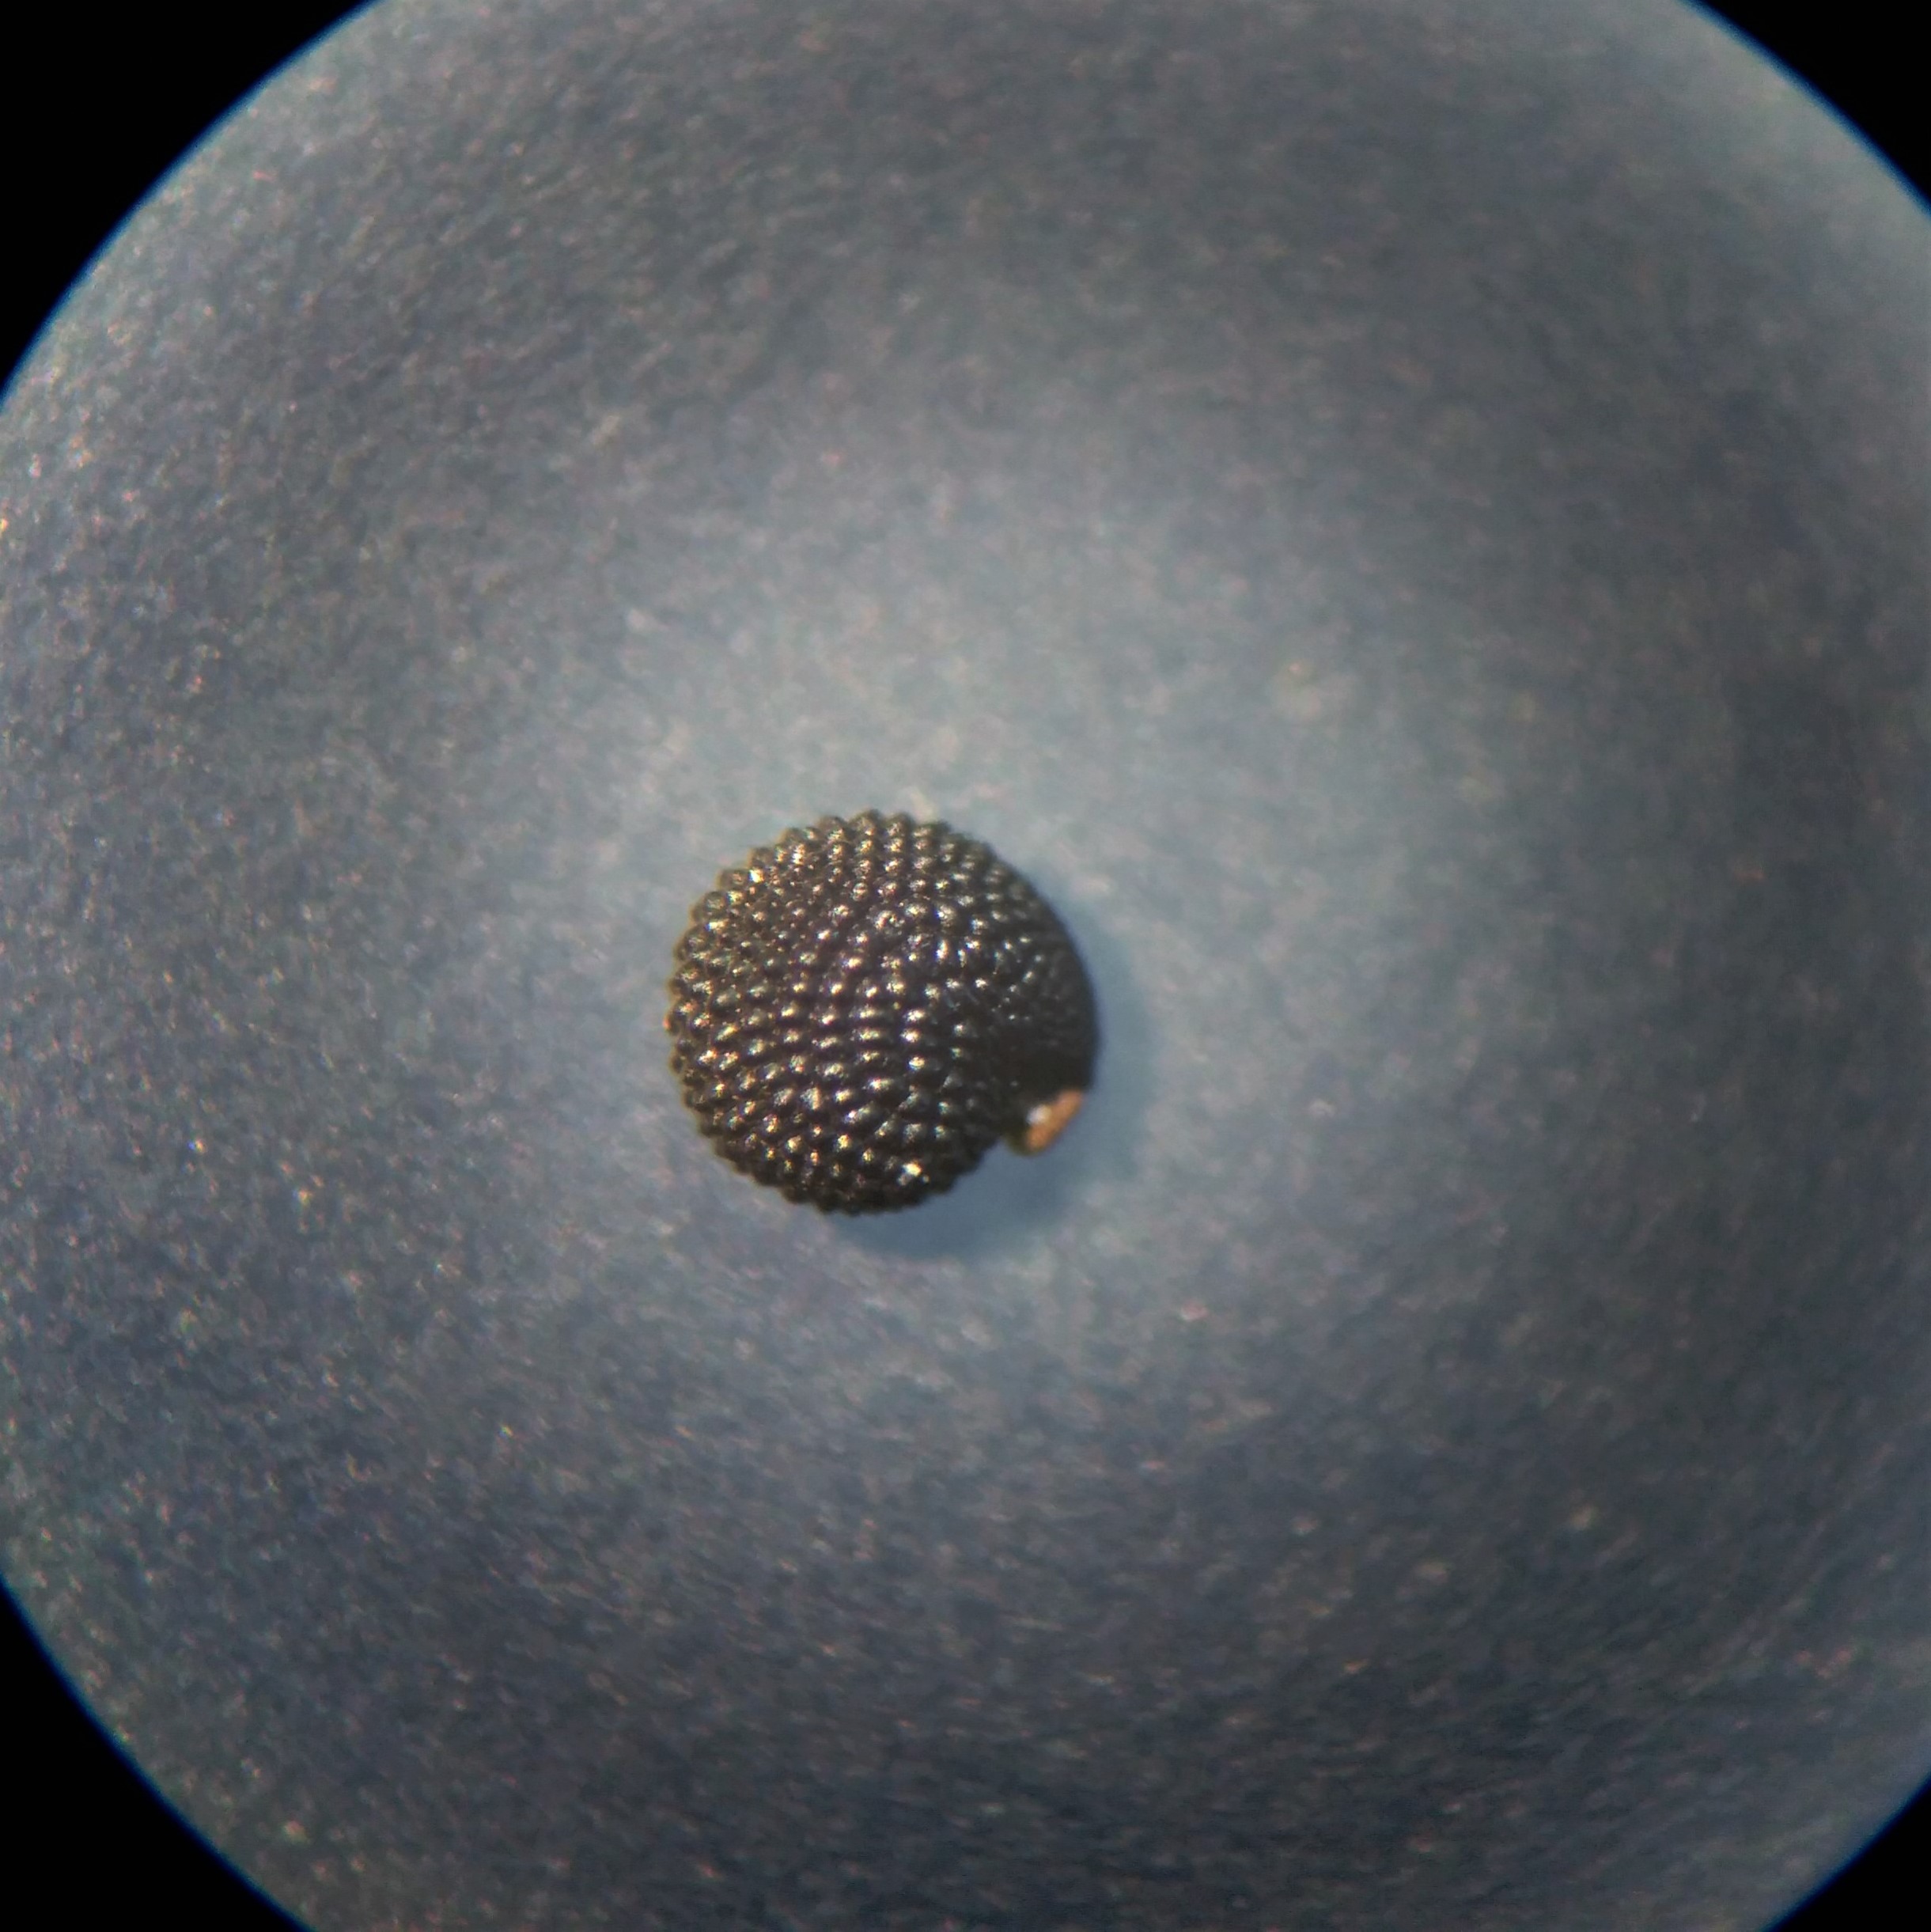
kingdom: Plantae
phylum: Tracheophyta
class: Magnoliopsida
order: Caryophyllales
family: Montiaceae
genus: Montia
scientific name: Montia arvensis
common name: Liden vandarve
